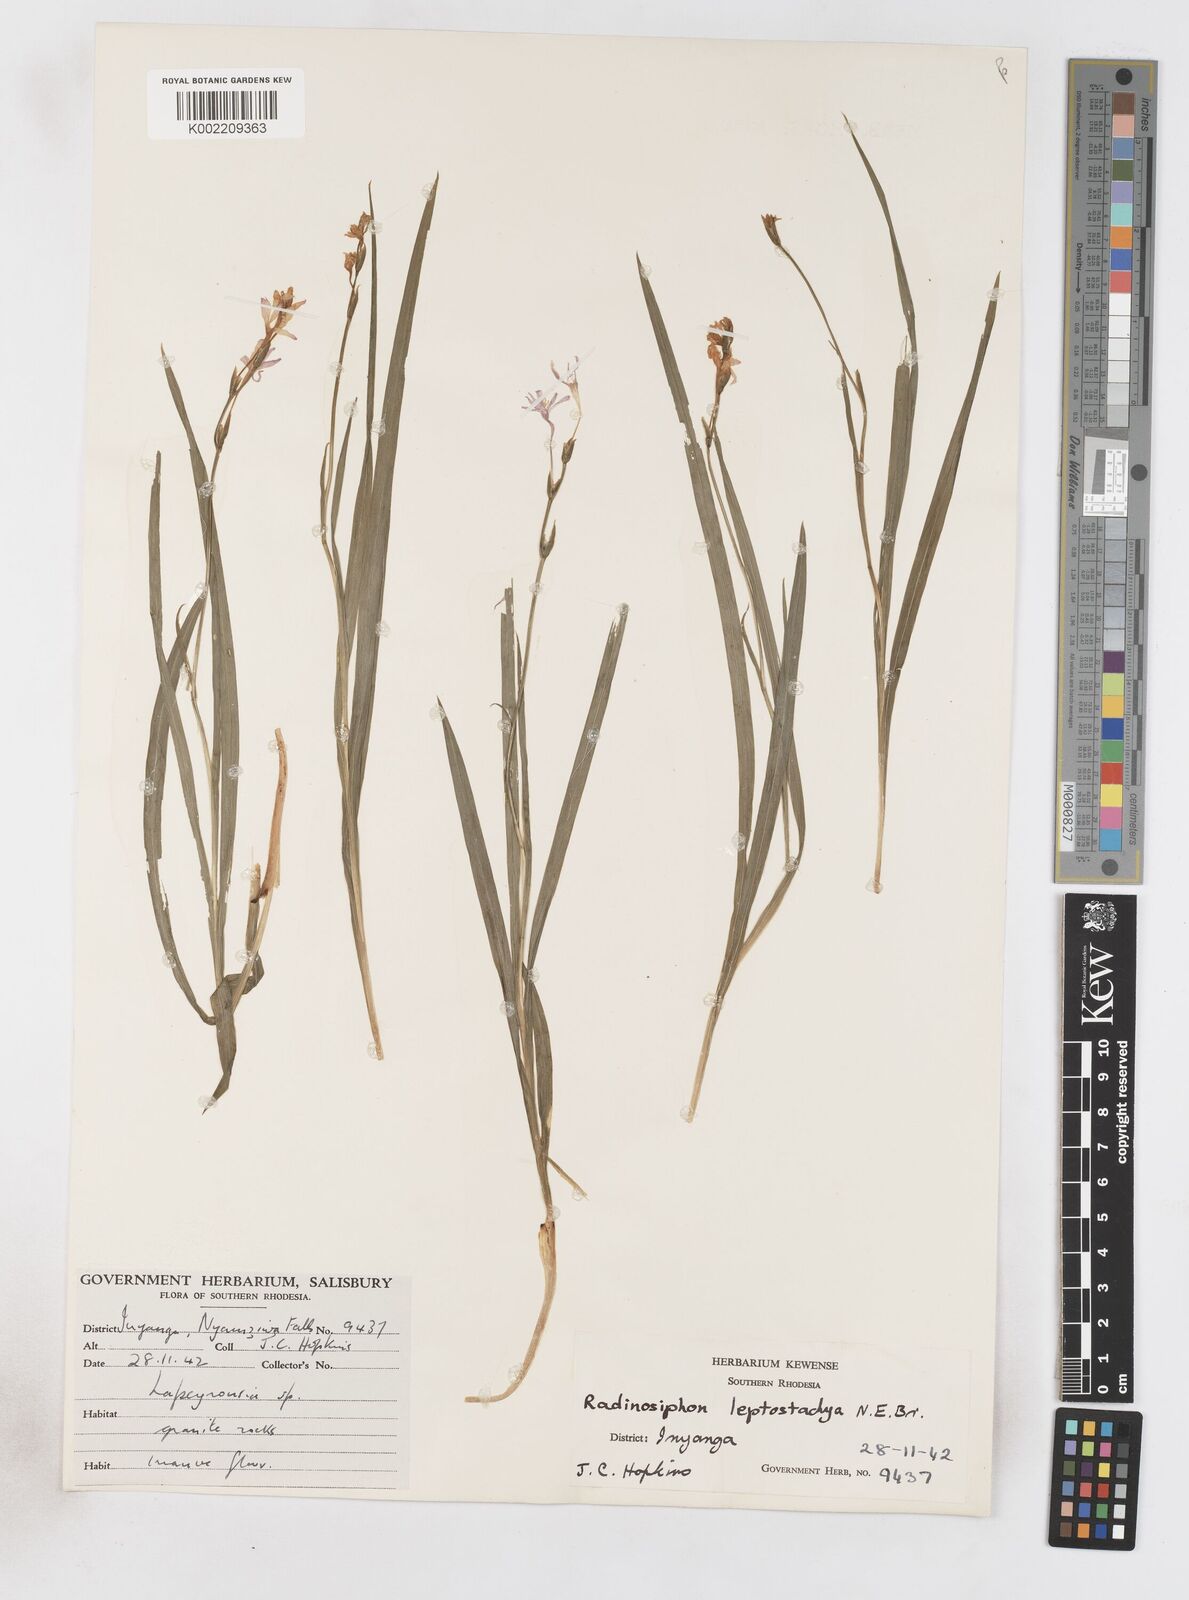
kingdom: Plantae
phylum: Tracheophyta
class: Liliopsida
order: Asparagales
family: Iridaceae
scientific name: Iridaceae
